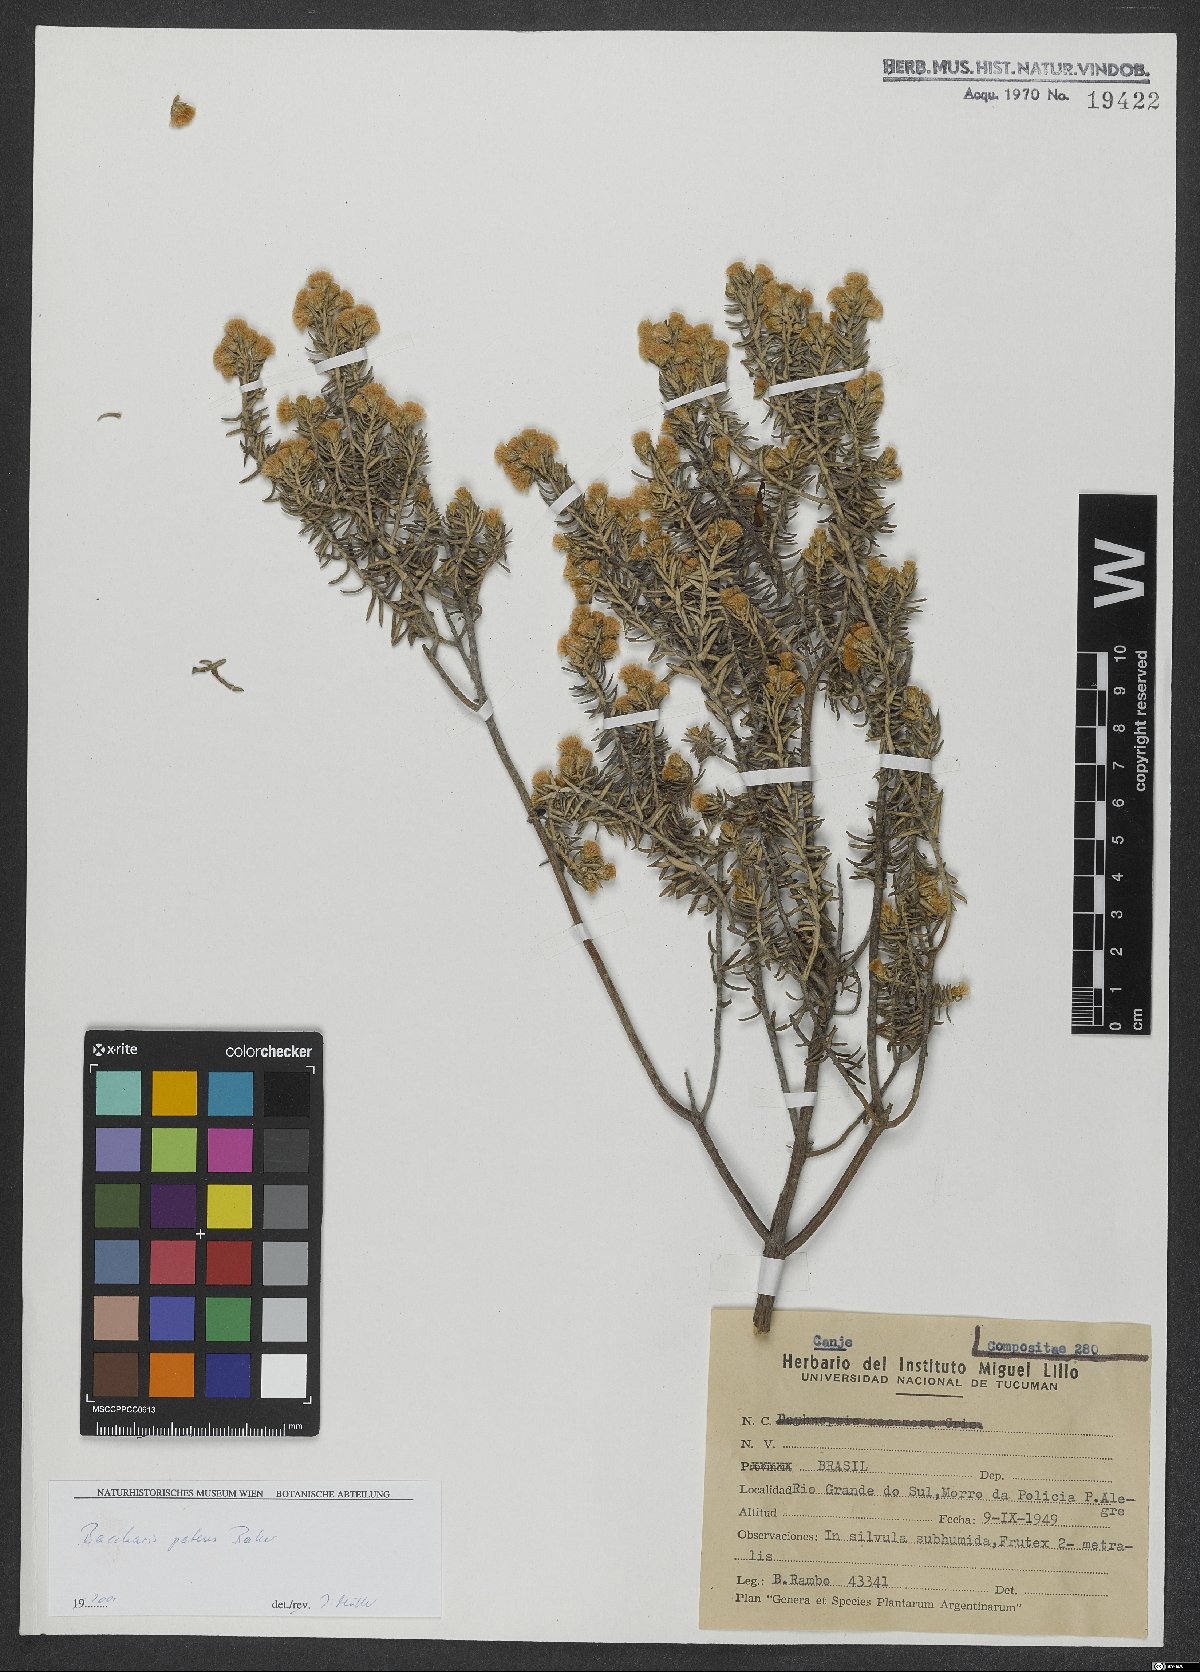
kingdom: Plantae
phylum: Tracheophyta
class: Magnoliopsida
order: Asterales
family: Asteraceae
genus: Baccharis
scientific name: Baccharis patens
